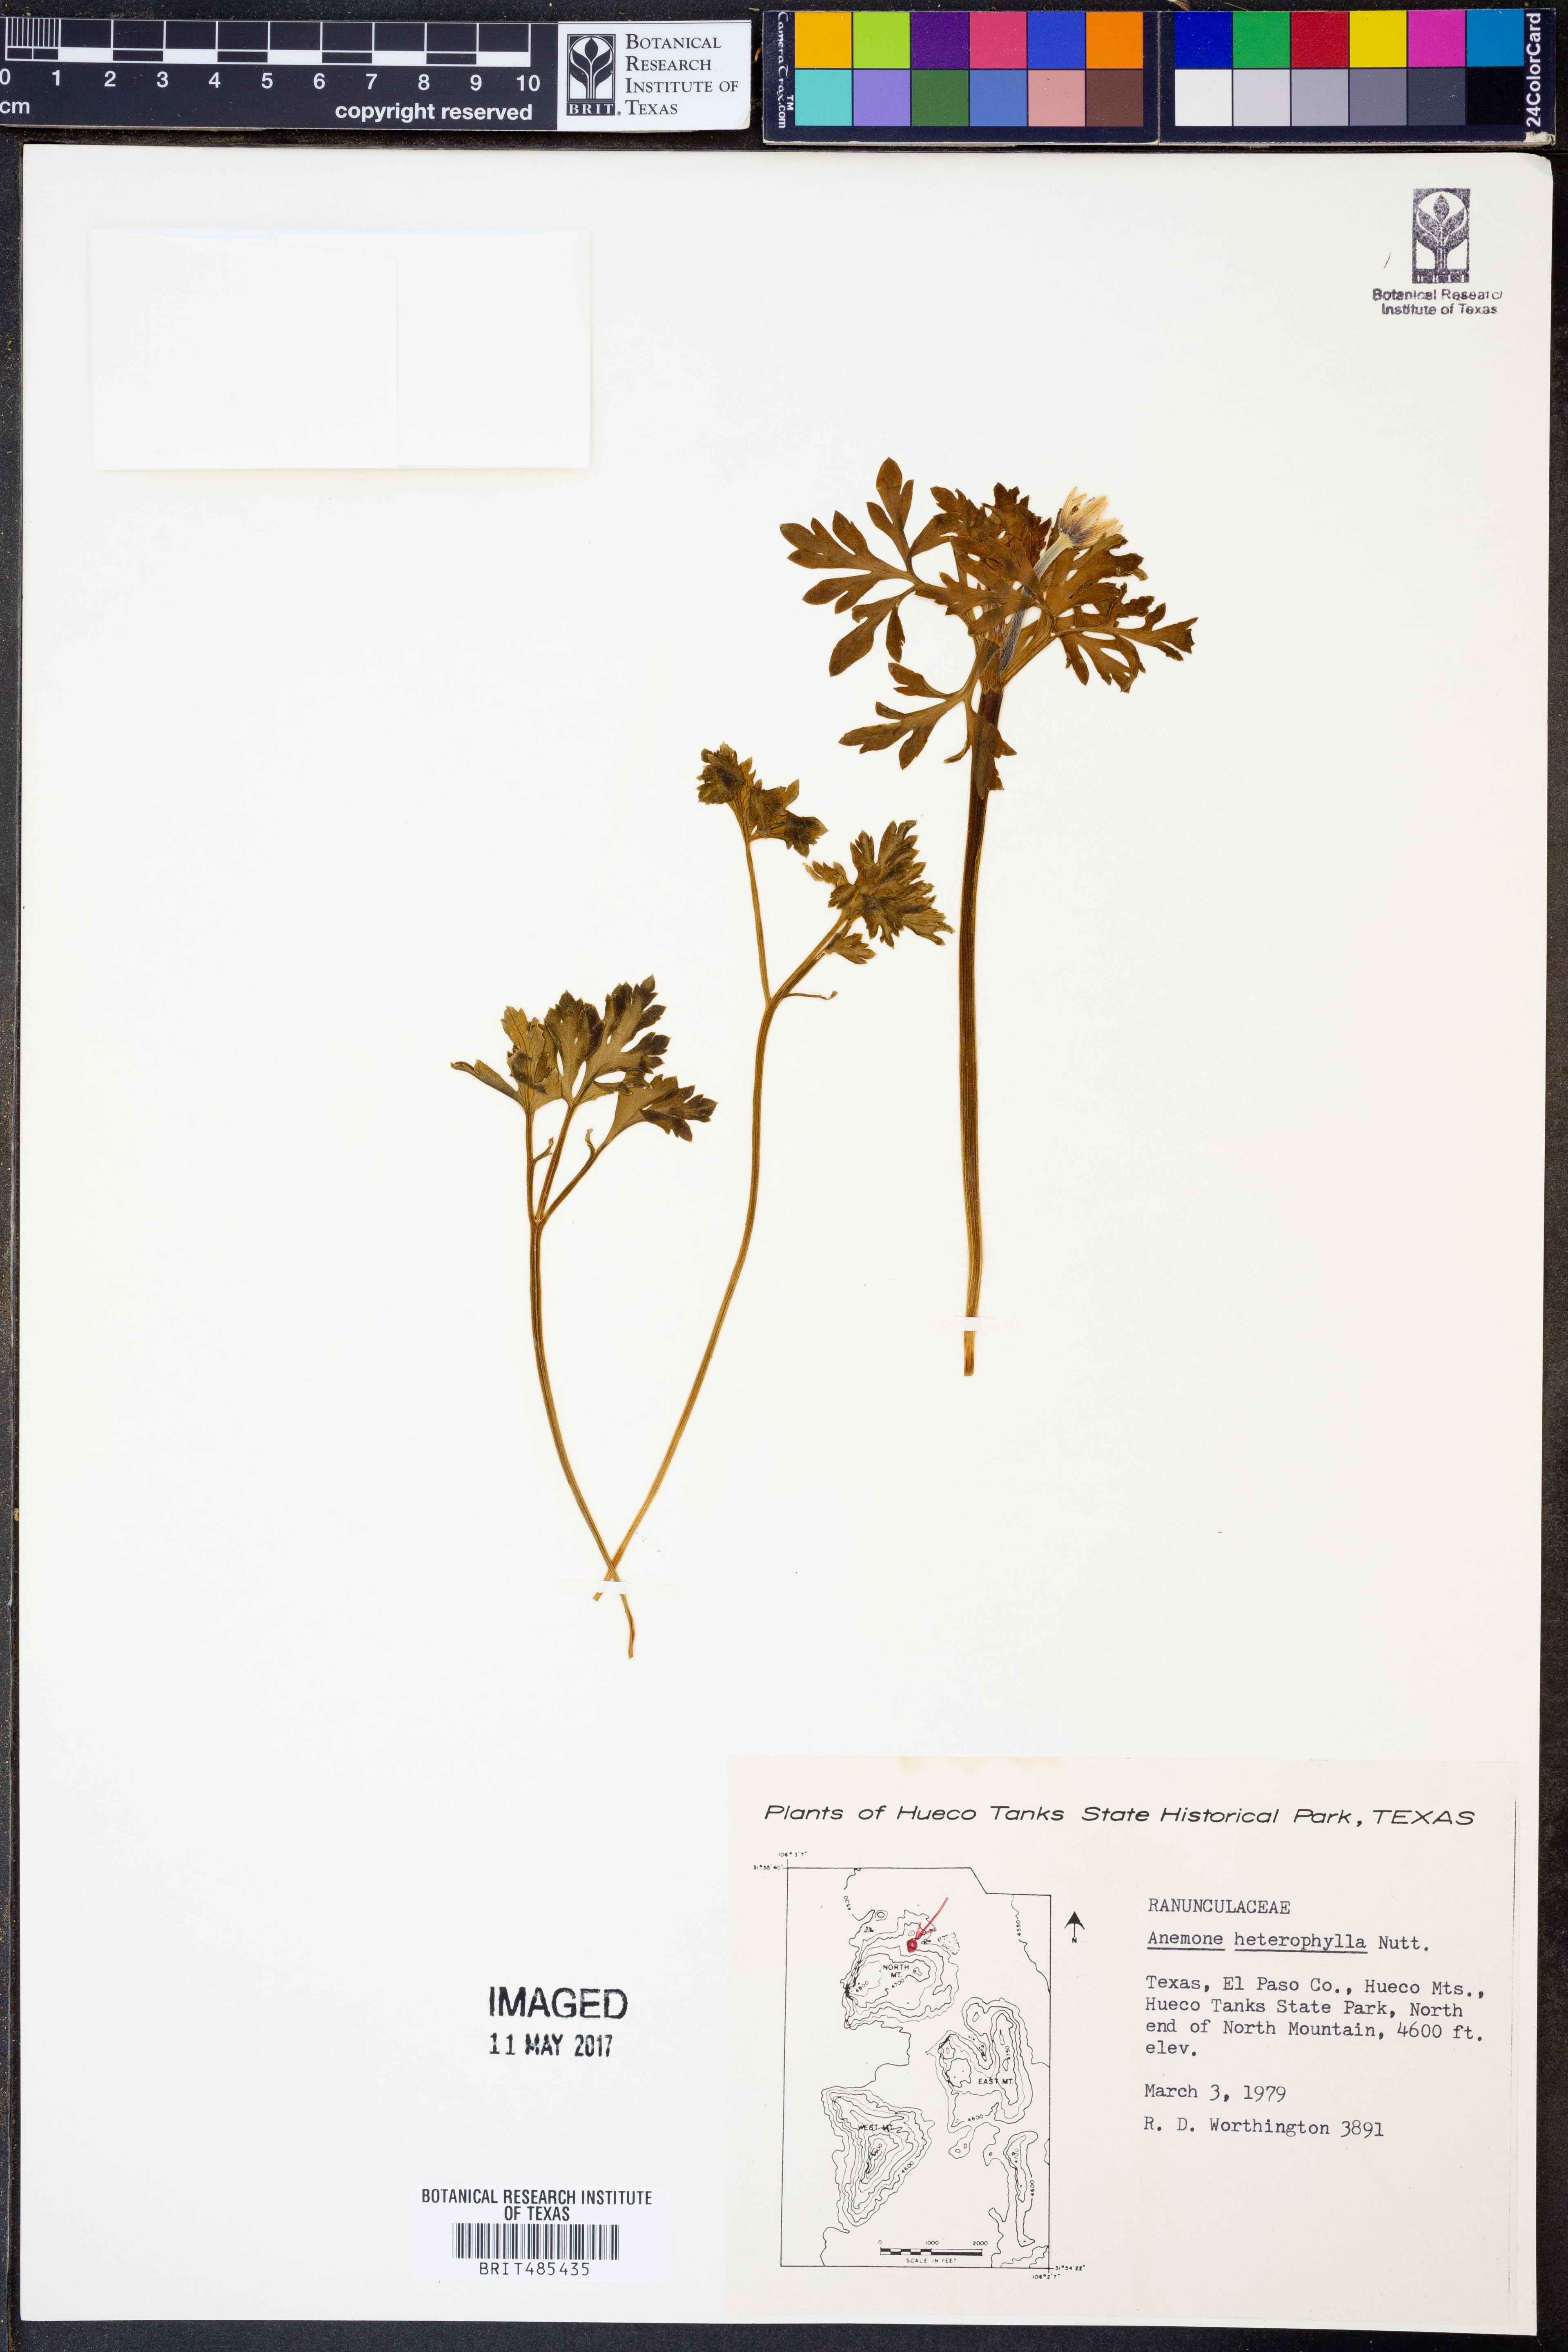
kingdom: Plantae
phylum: Tracheophyta
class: Magnoliopsida
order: Ranunculales
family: Ranunculaceae
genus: Anemone
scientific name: Anemone heterophylla
